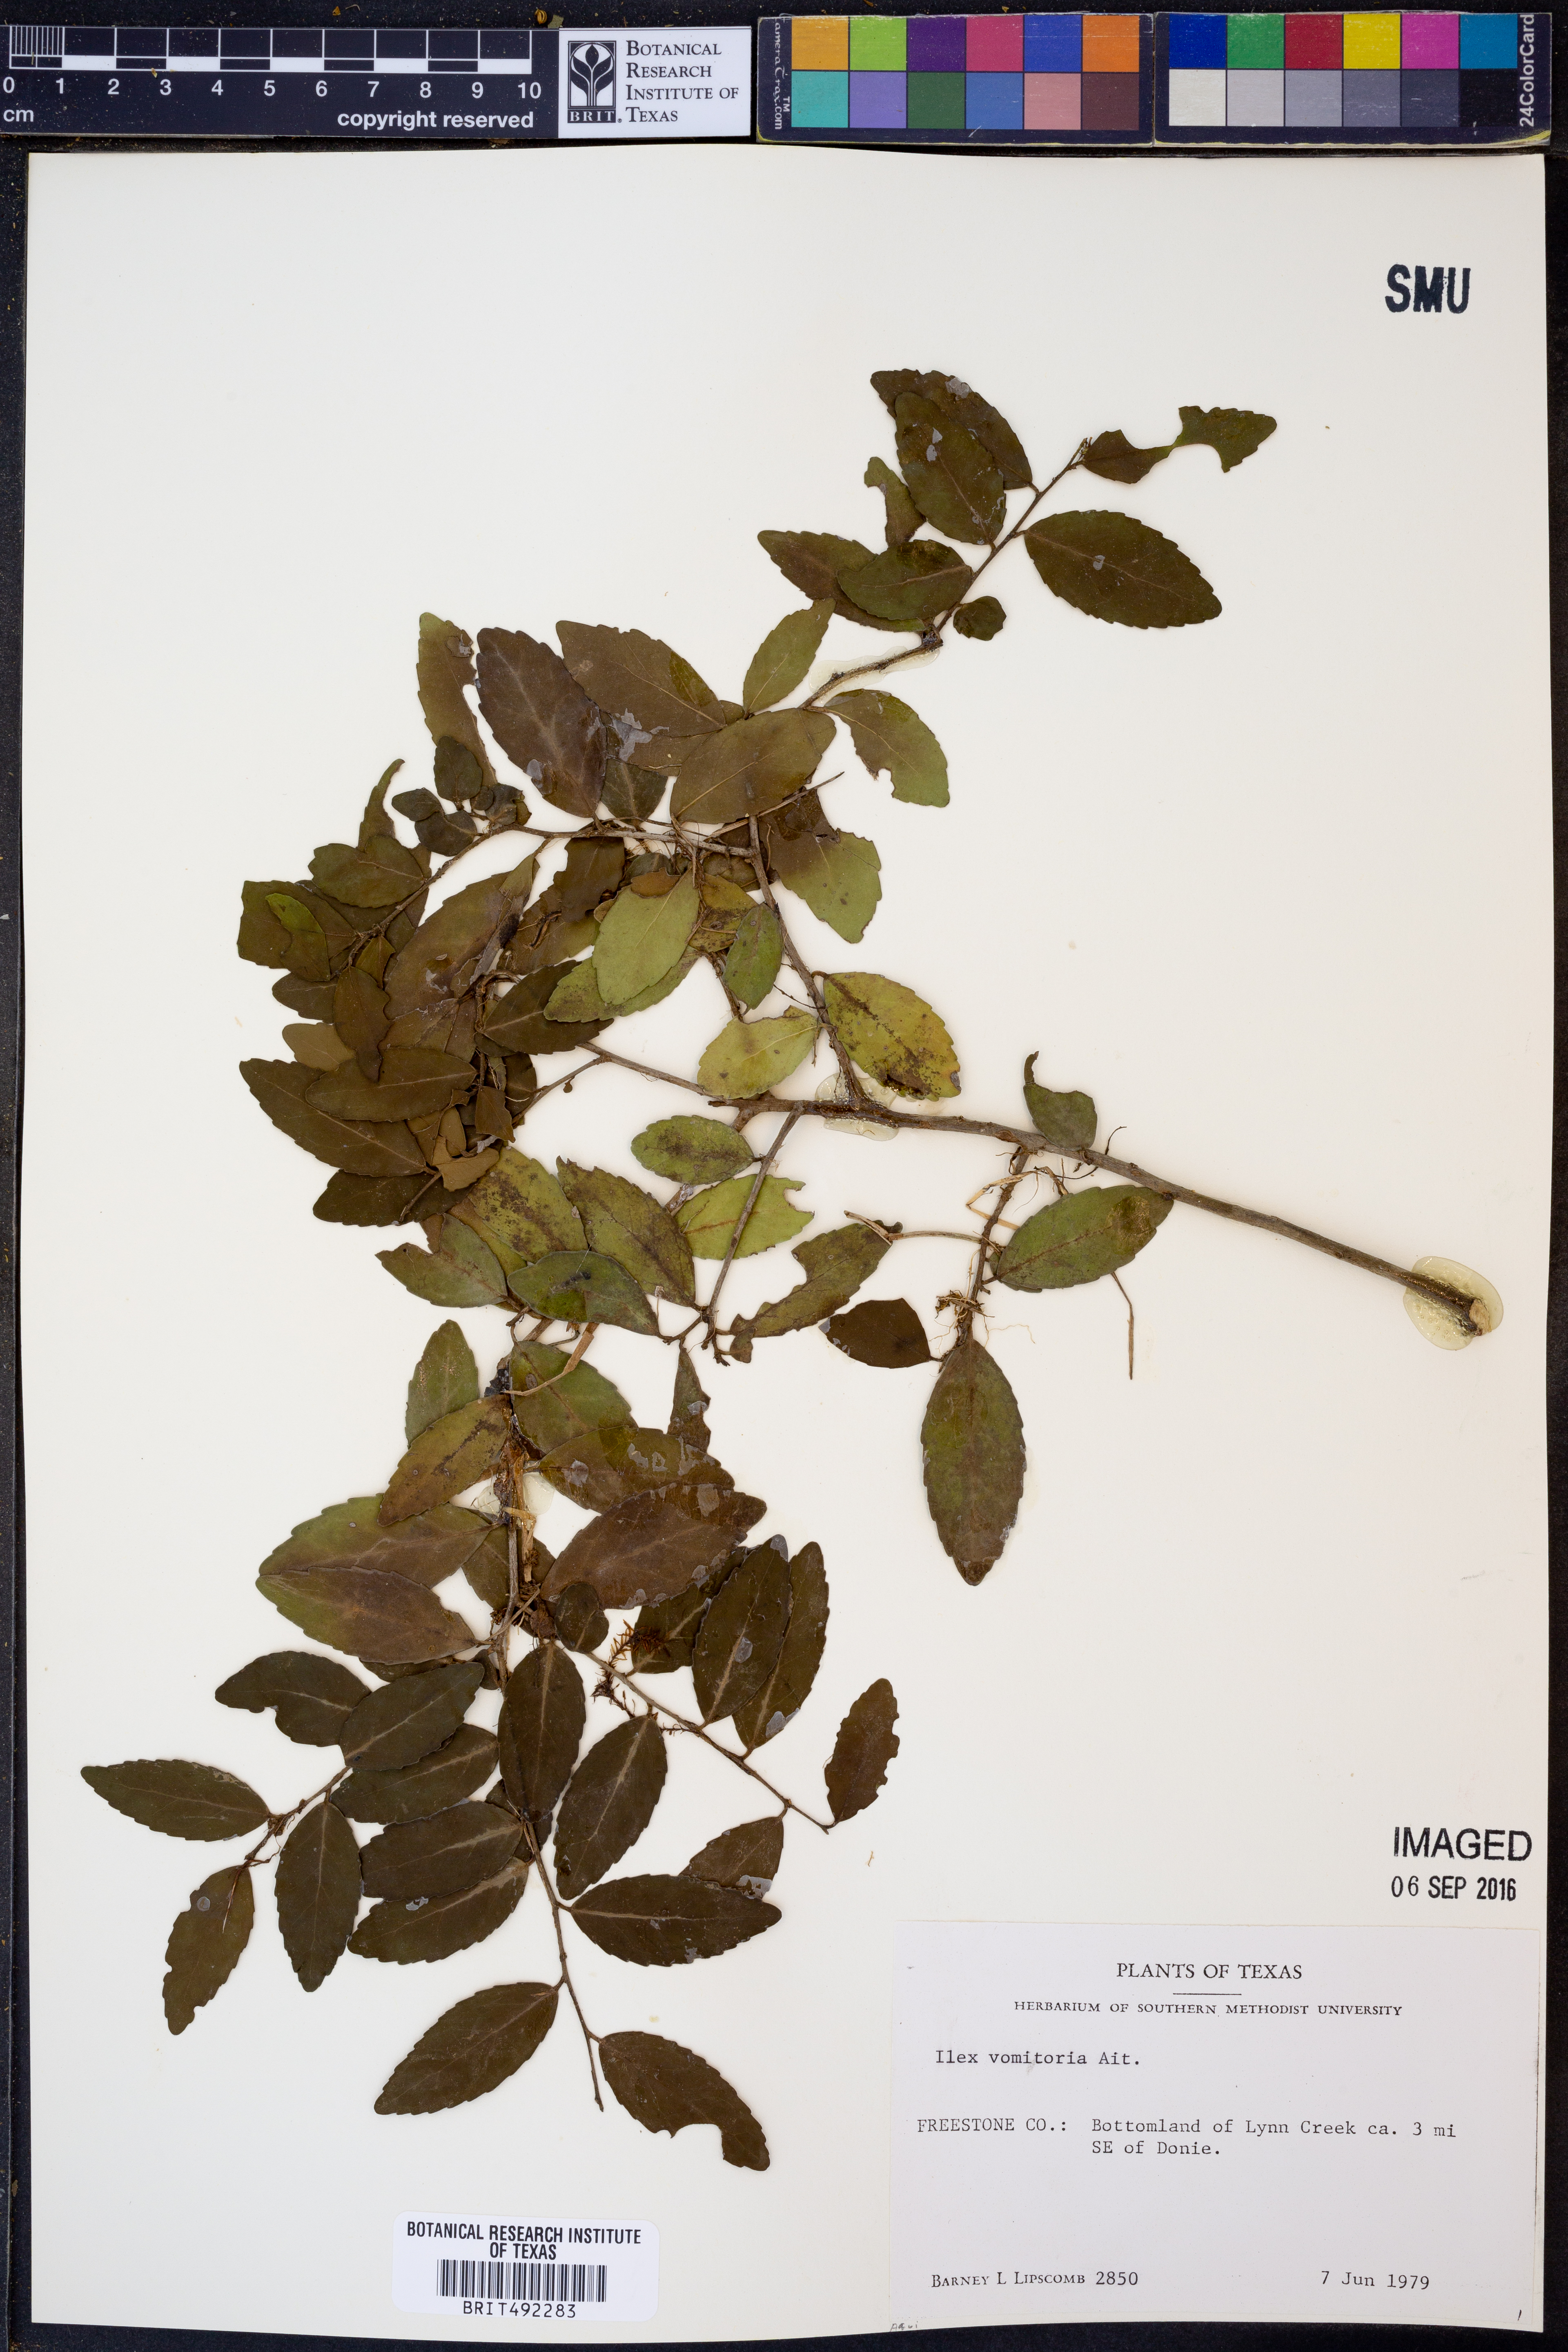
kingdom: Plantae
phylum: Tracheophyta
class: Magnoliopsida
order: Aquifoliales
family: Aquifoliaceae
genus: Ilex
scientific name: Ilex vomitoria
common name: Yaupon holly
